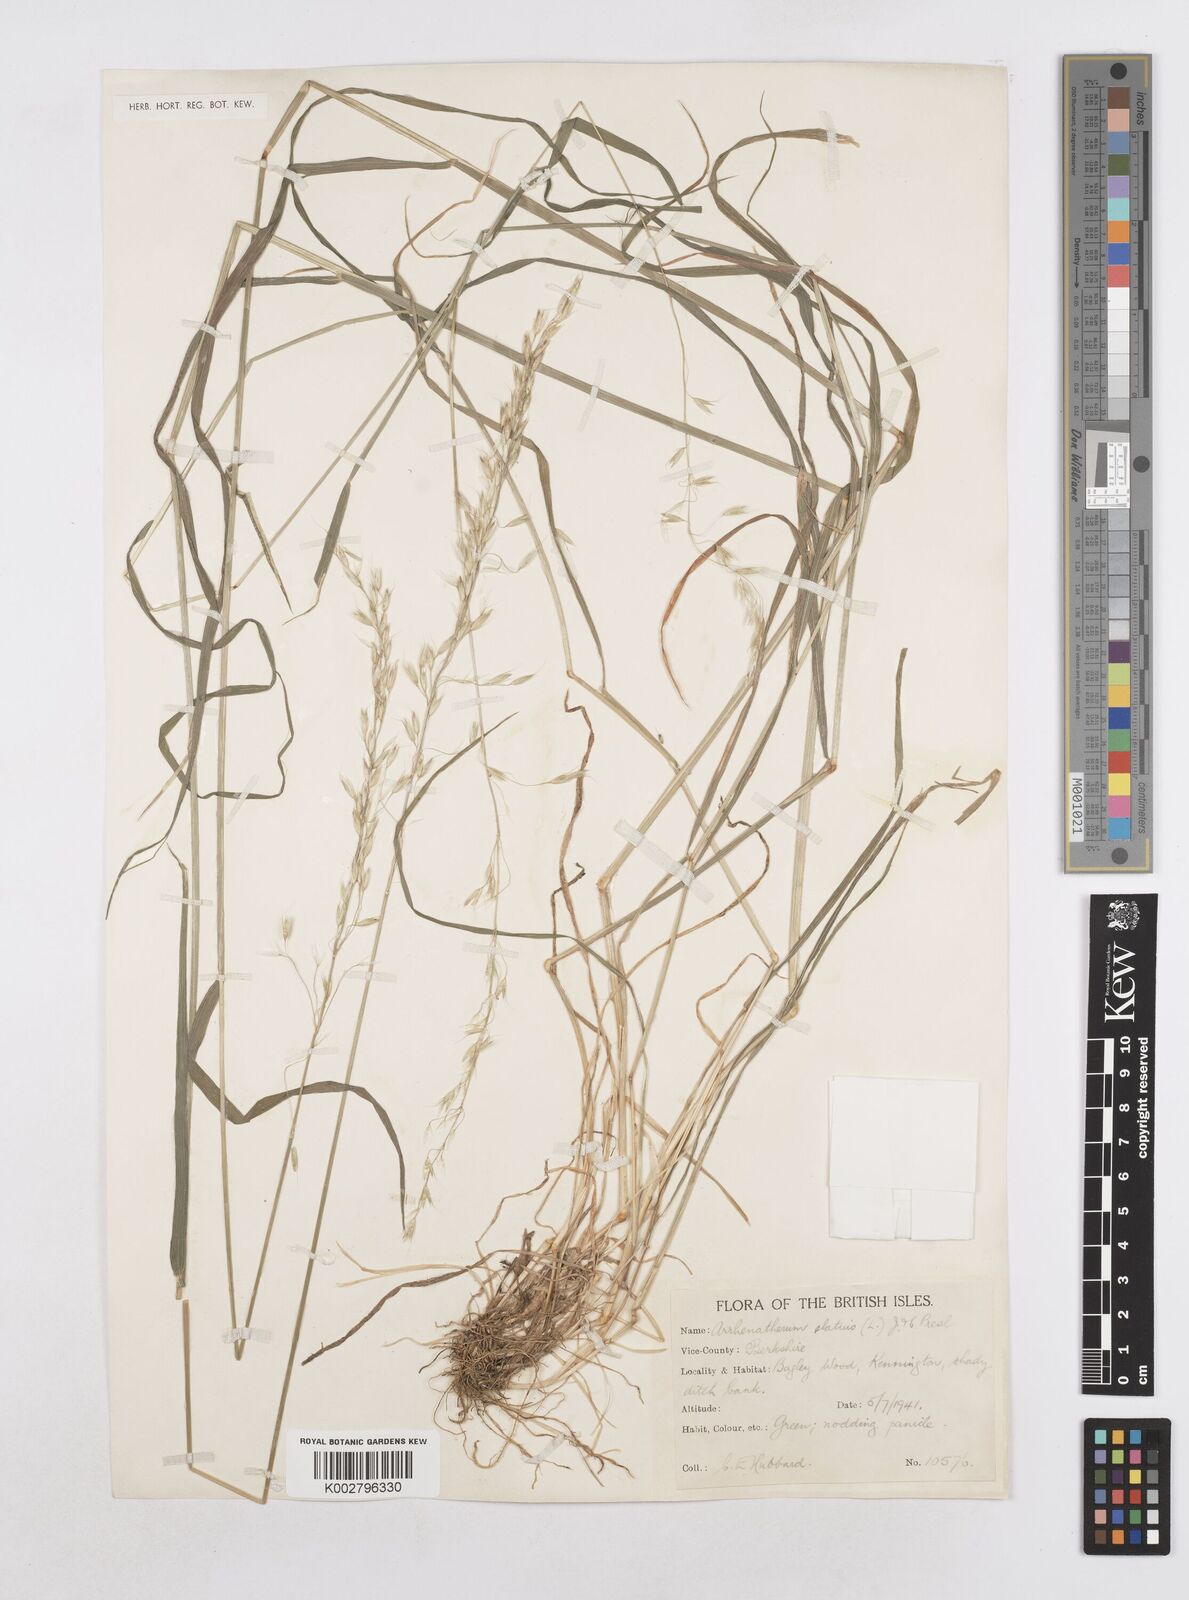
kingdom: Plantae
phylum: Tracheophyta
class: Liliopsida
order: Poales
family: Poaceae
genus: Arrhenatherum
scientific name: Arrhenatherum elatius
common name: Tall oatgrass
